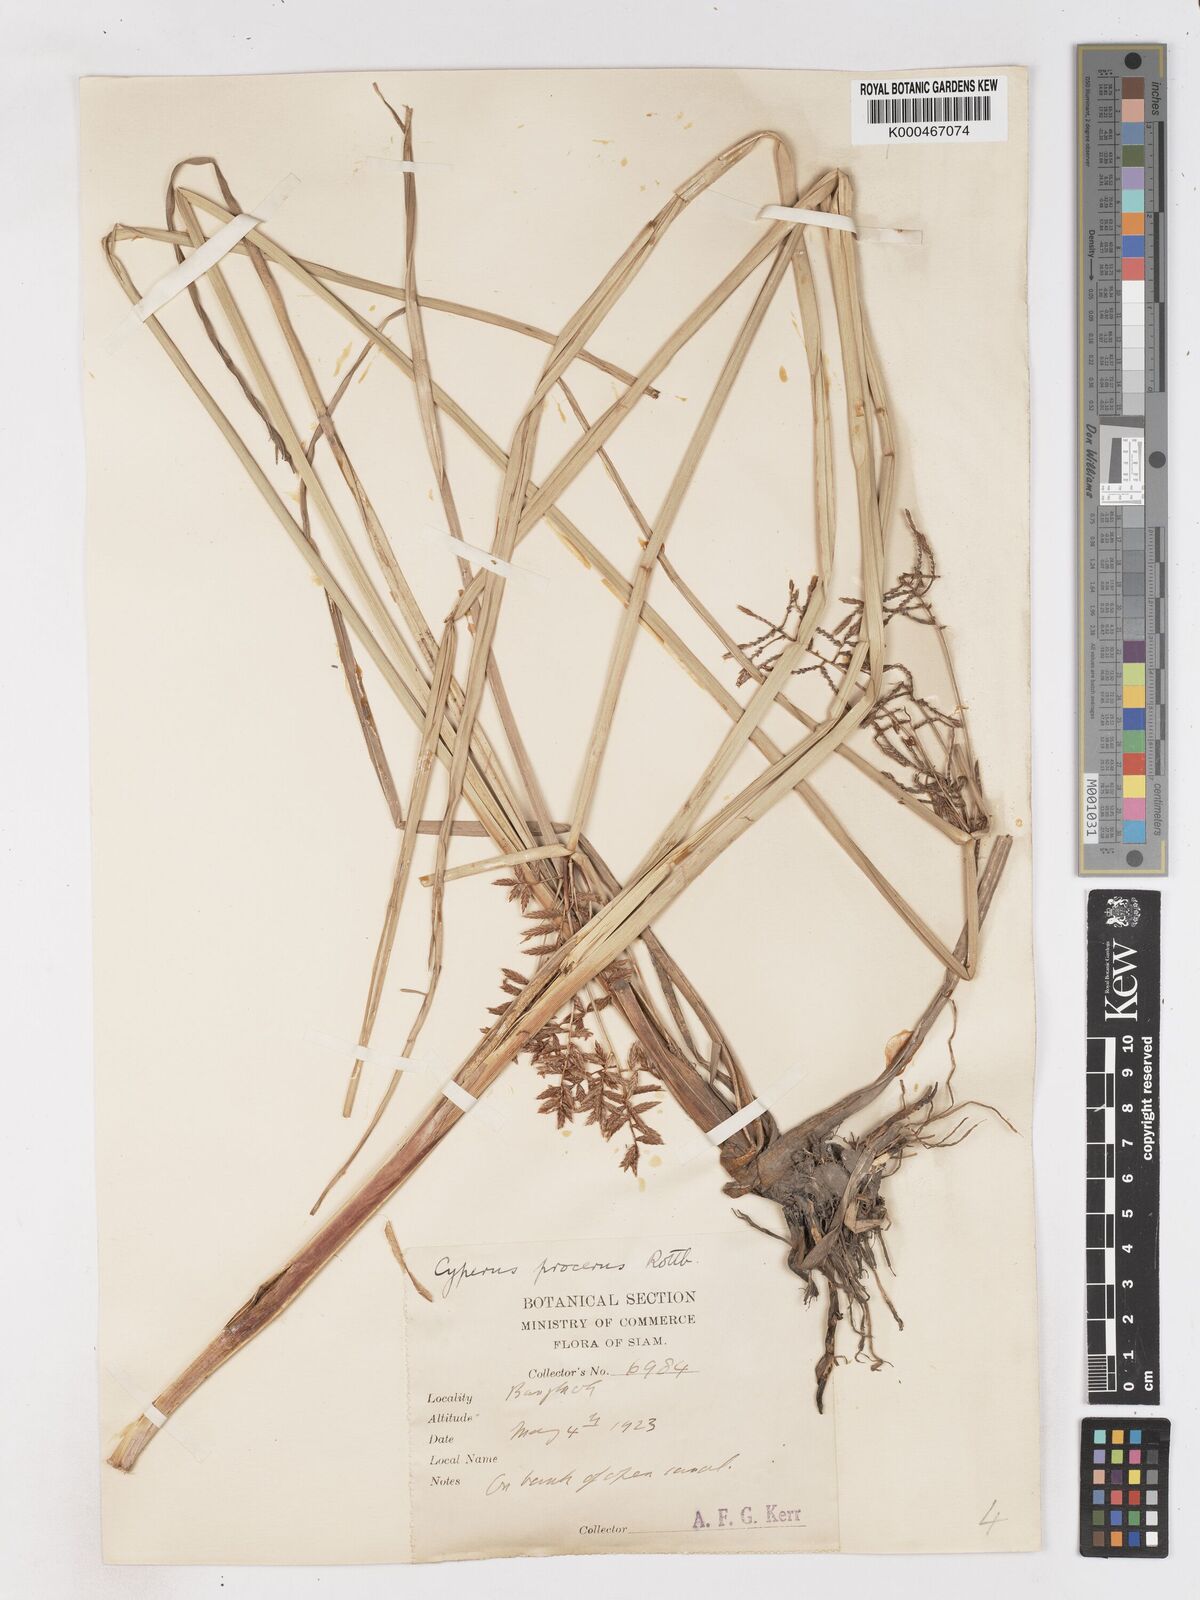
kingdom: Plantae
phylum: Tracheophyta
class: Liliopsida
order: Poales
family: Cyperaceae
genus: Cyperus
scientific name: Cyperus procerus
